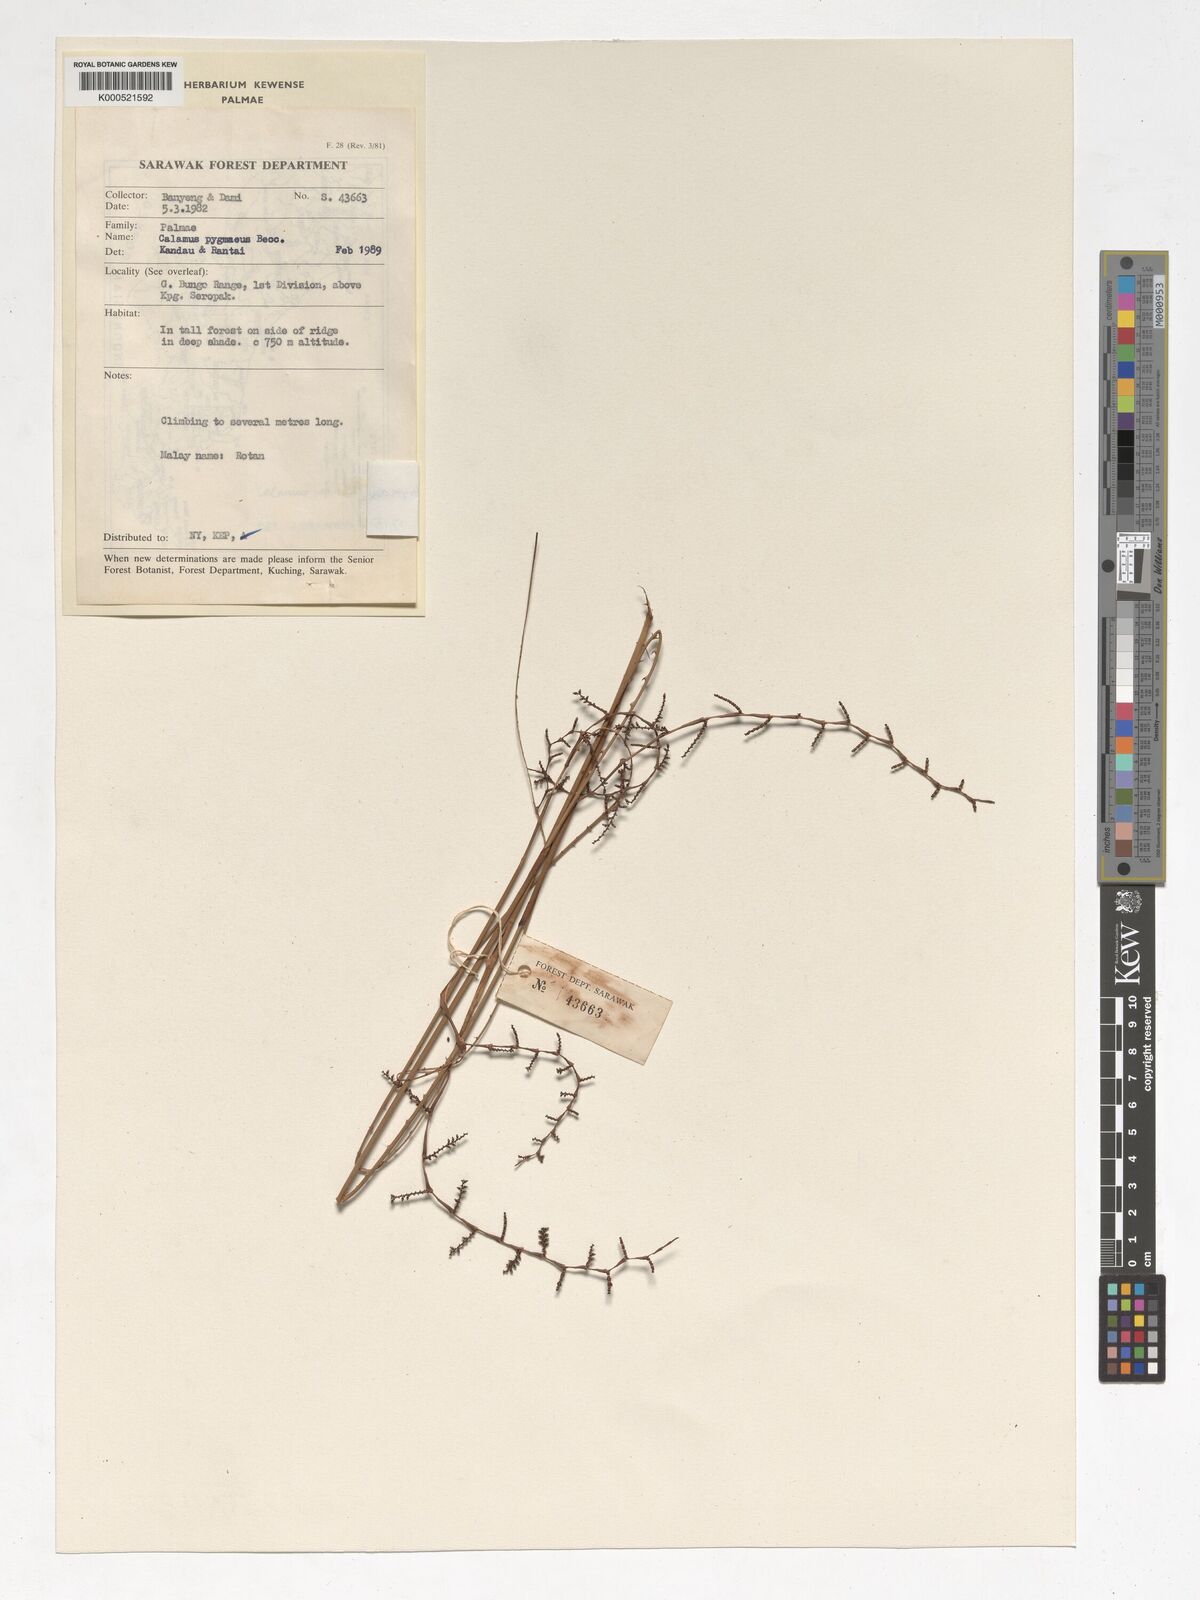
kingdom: Plantae
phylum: Tracheophyta
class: Liliopsida
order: Arecales
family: Arecaceae
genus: Calamus
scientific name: Calamus nematospadix
